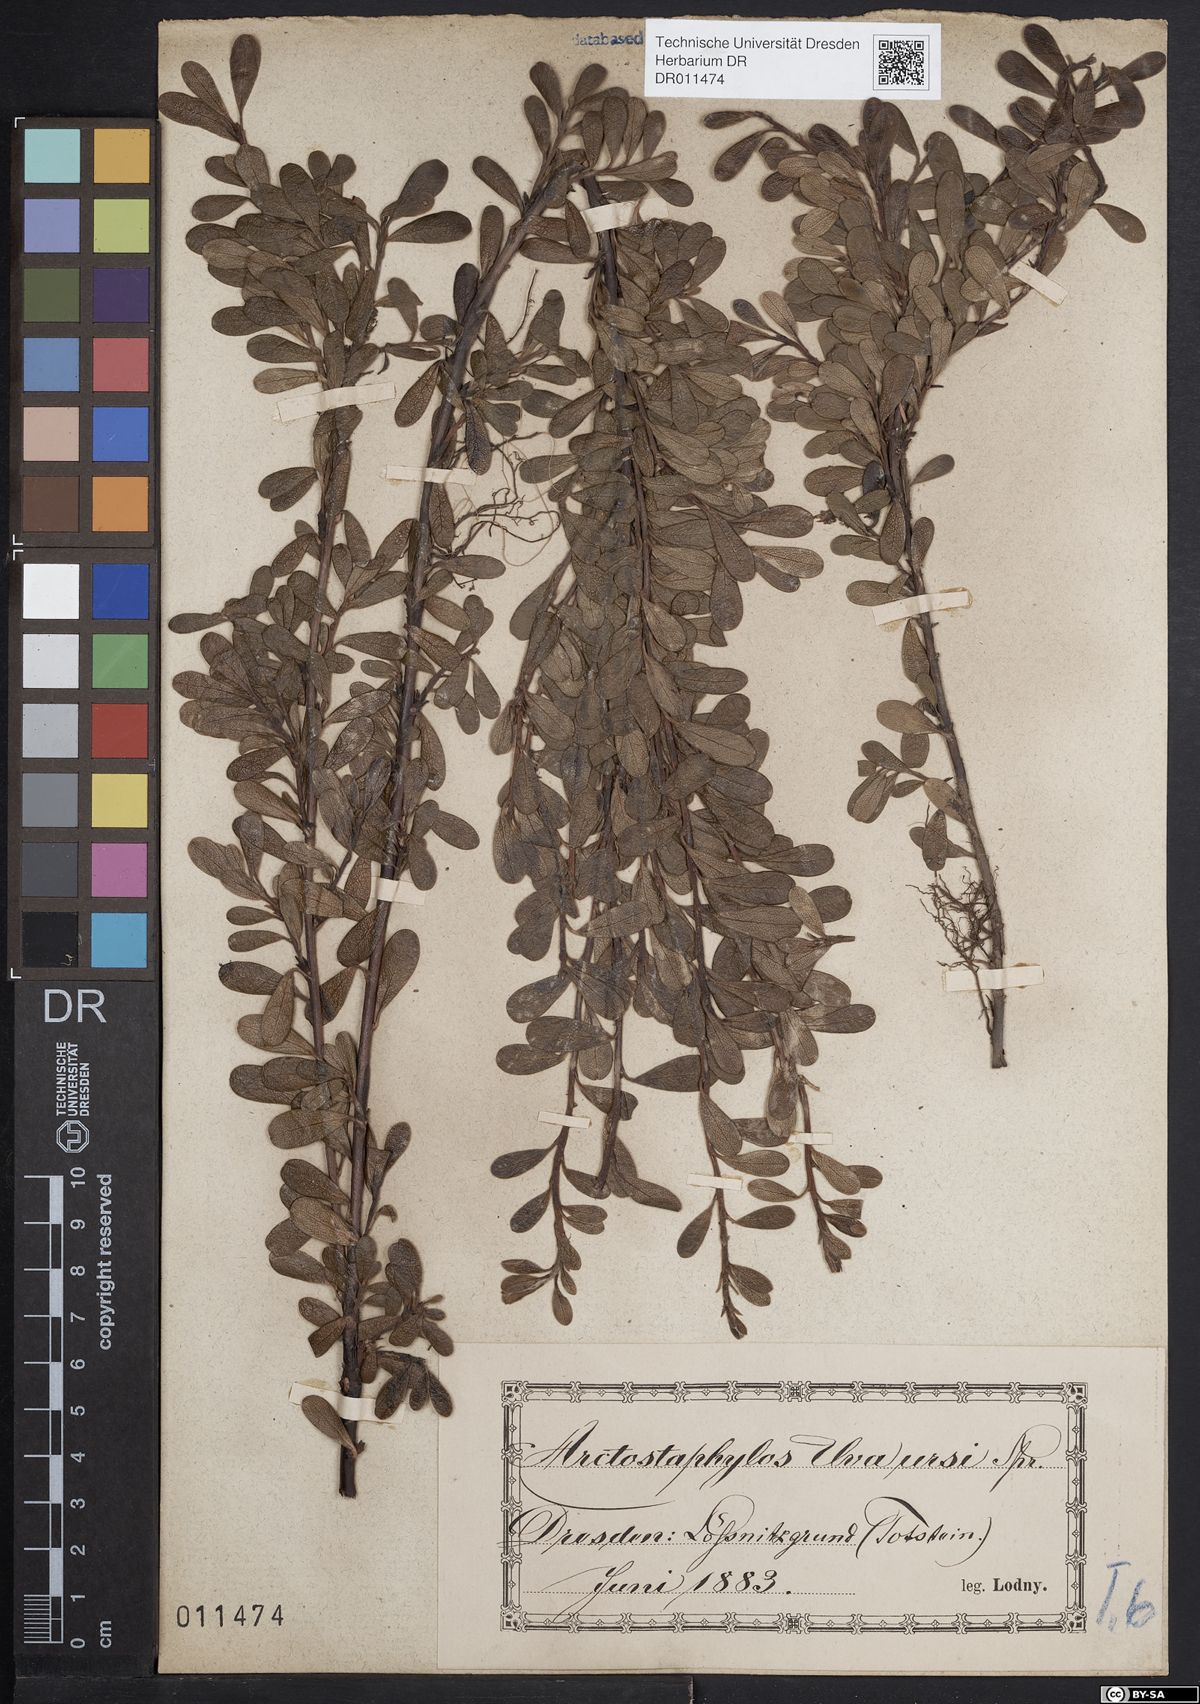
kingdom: Plantae
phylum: Tracheophyta
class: Magnoliopsida
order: Ericales
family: Ericaceae
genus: Arctostaphylos
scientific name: Arctostaphylos uva-ursi
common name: Bearberry
